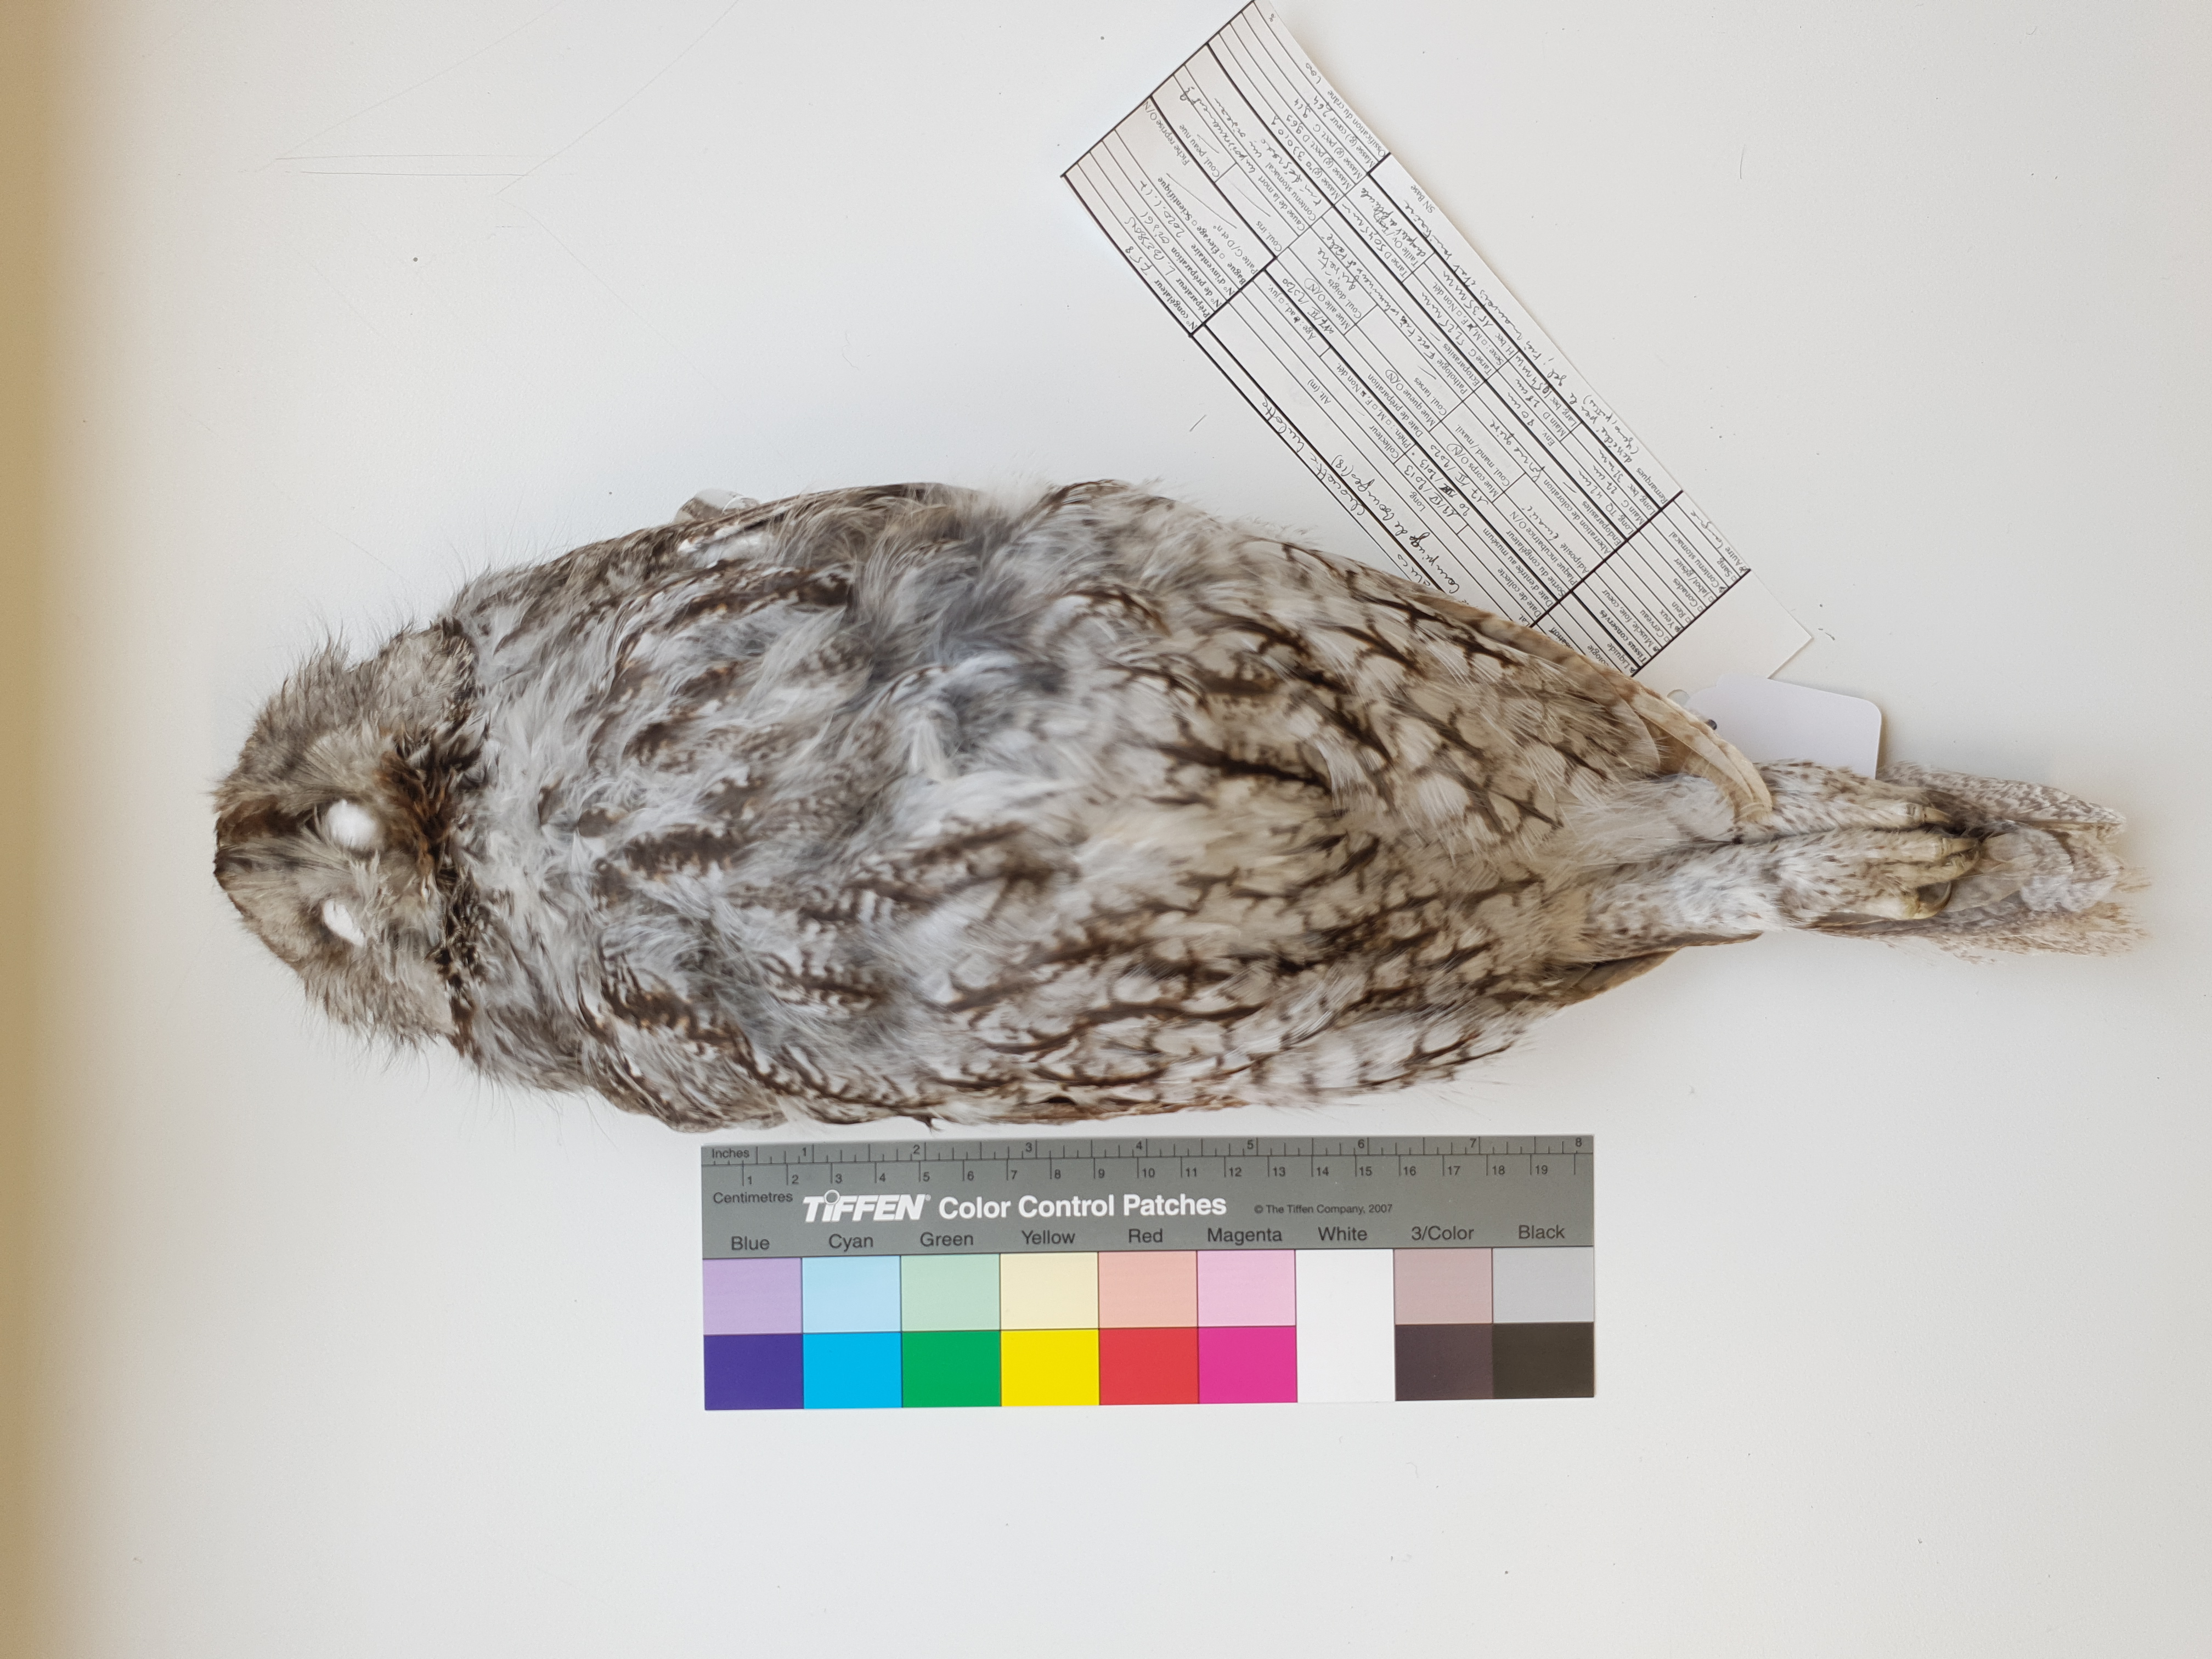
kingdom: Animalia
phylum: Chordata
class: Aves
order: Strigiformes
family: Strigidae
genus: Strix
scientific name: Strix aluco
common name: Tawny owl
